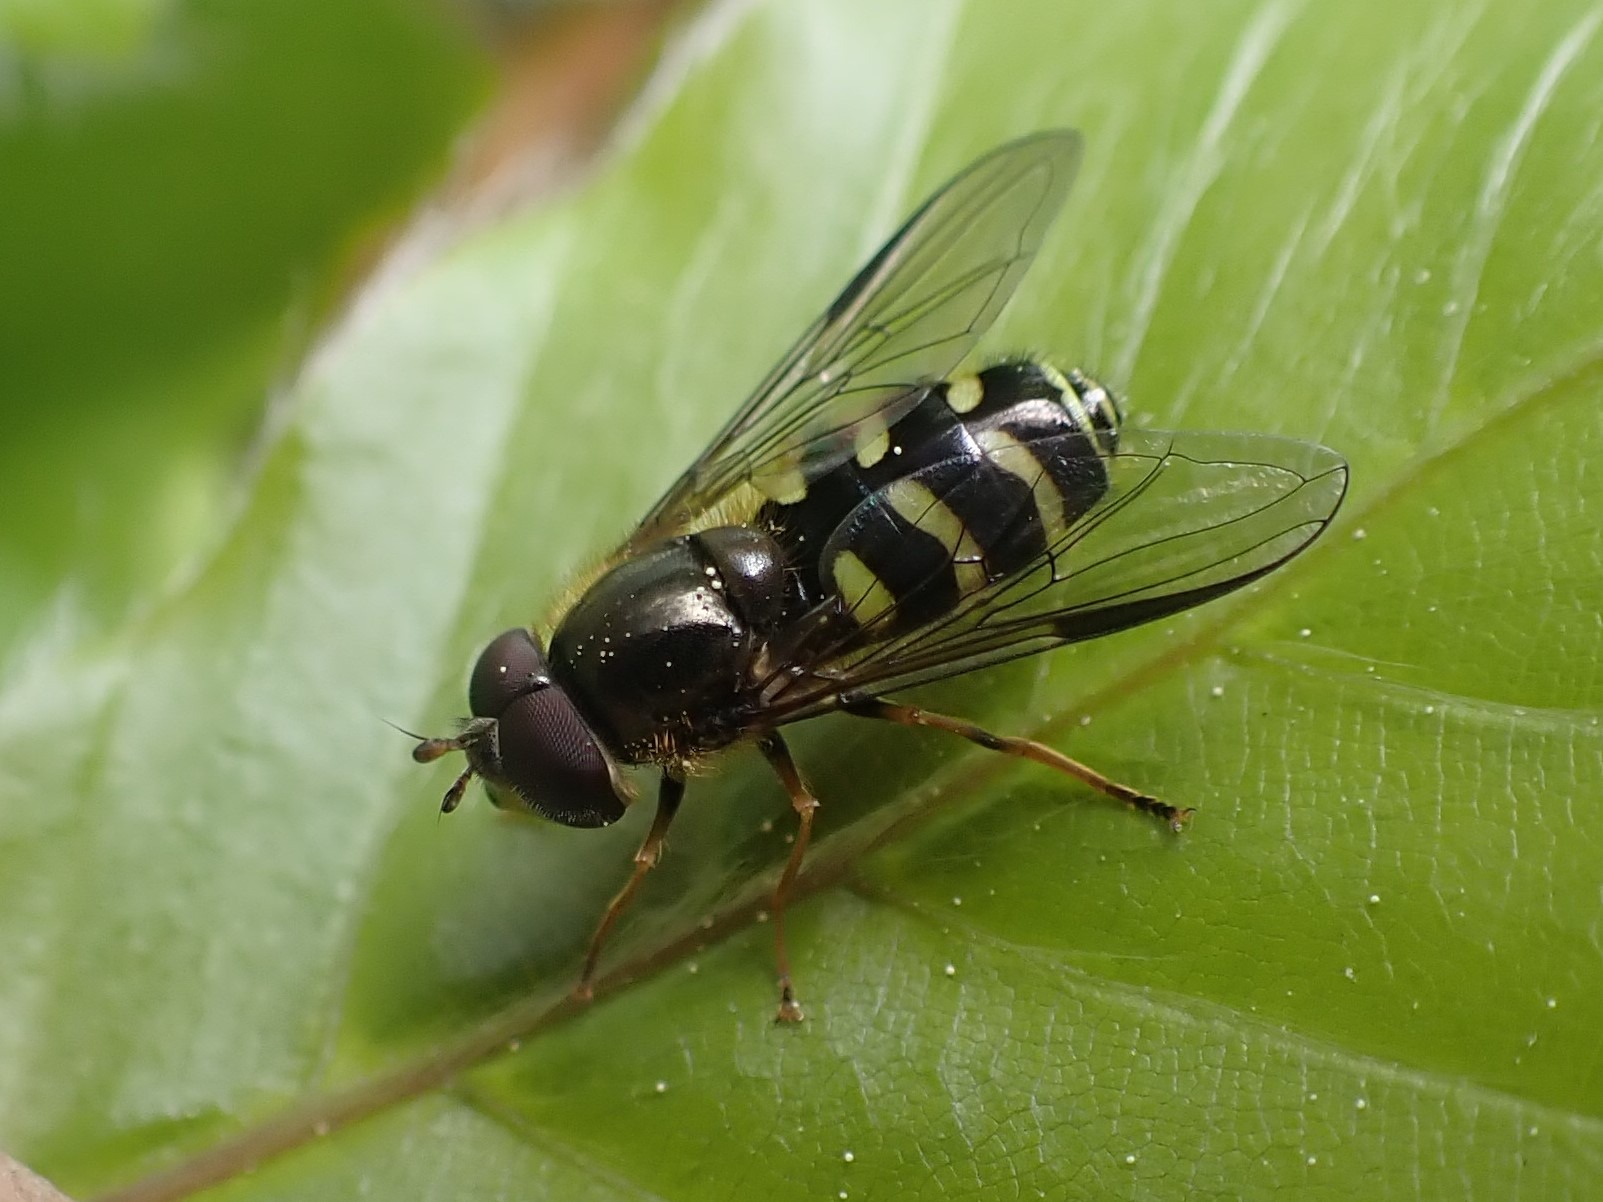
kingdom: Animalia
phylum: Arthropoda
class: Insecta
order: Diptera
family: Syrphidae
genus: Dasysyrphus
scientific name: Dasysyrphus venustus
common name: Smuk skovsvirreflue
